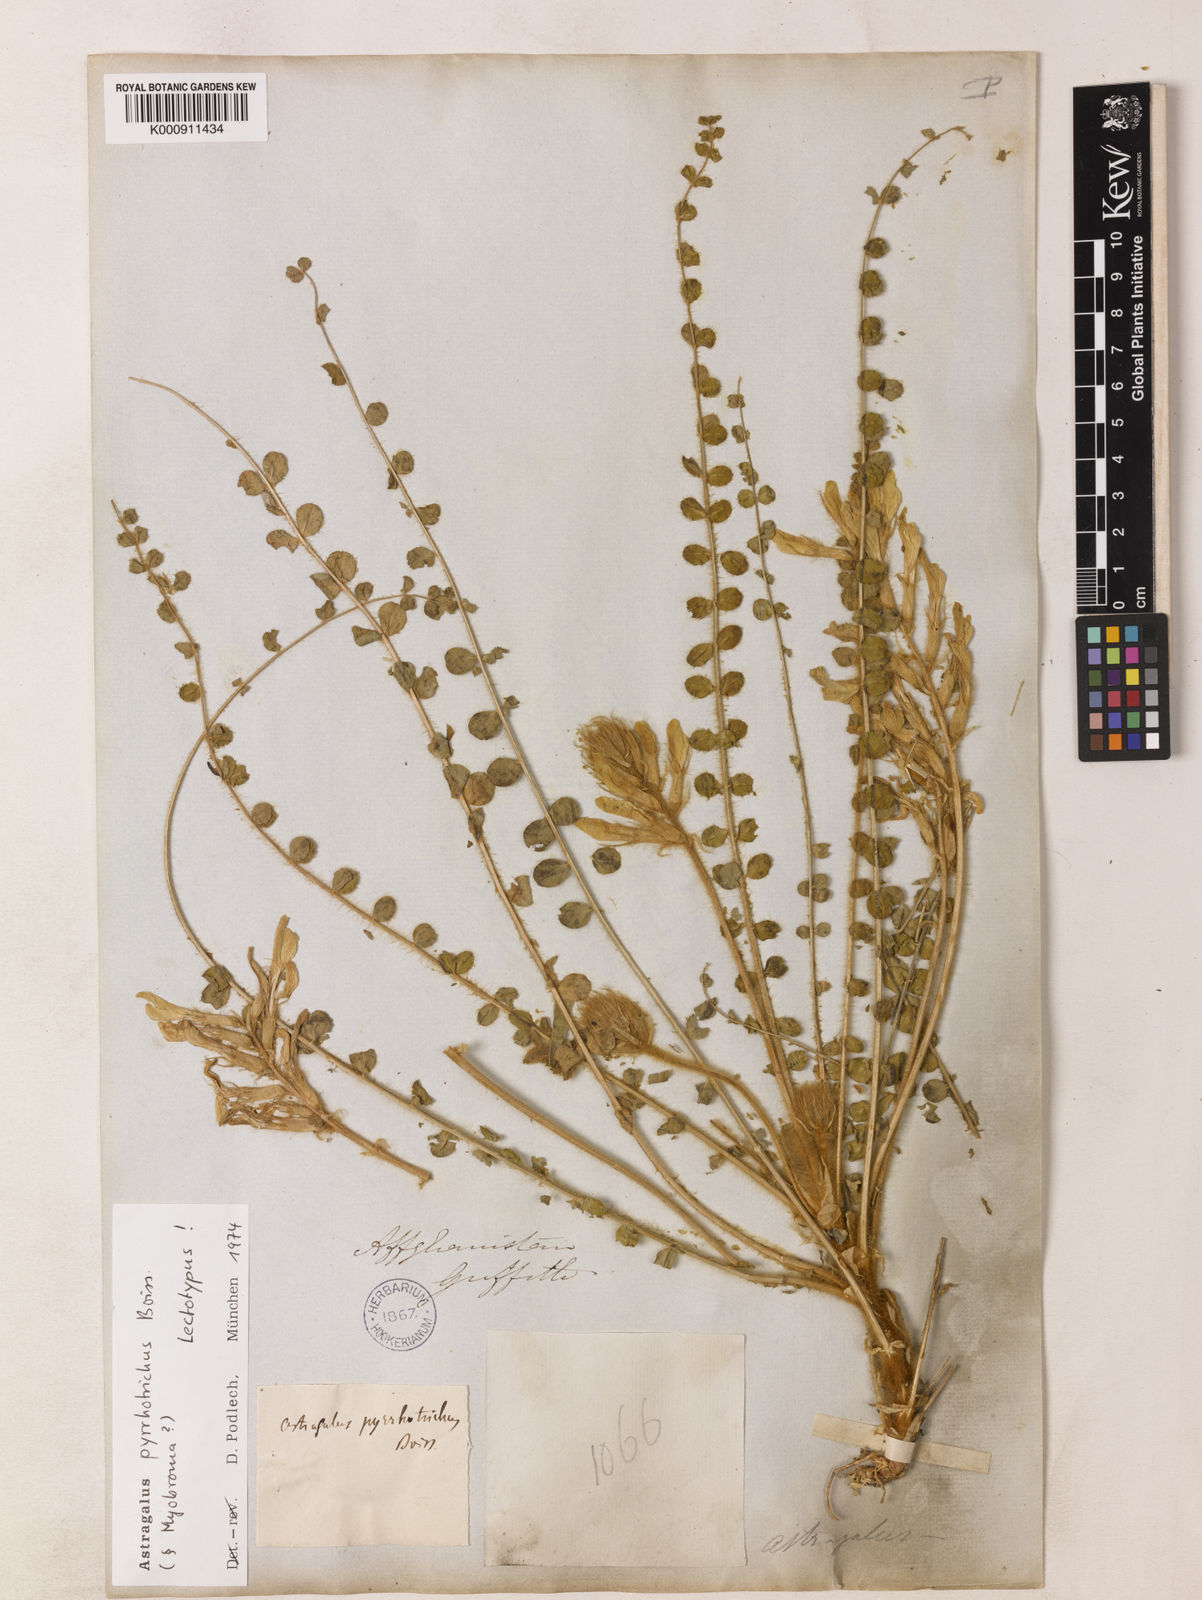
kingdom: Plantae
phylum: Tracheophyta
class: Magnoliopsida
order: Fabales
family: Fabaceae
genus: Astragalus
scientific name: Astragalus pyrrhotrichus
